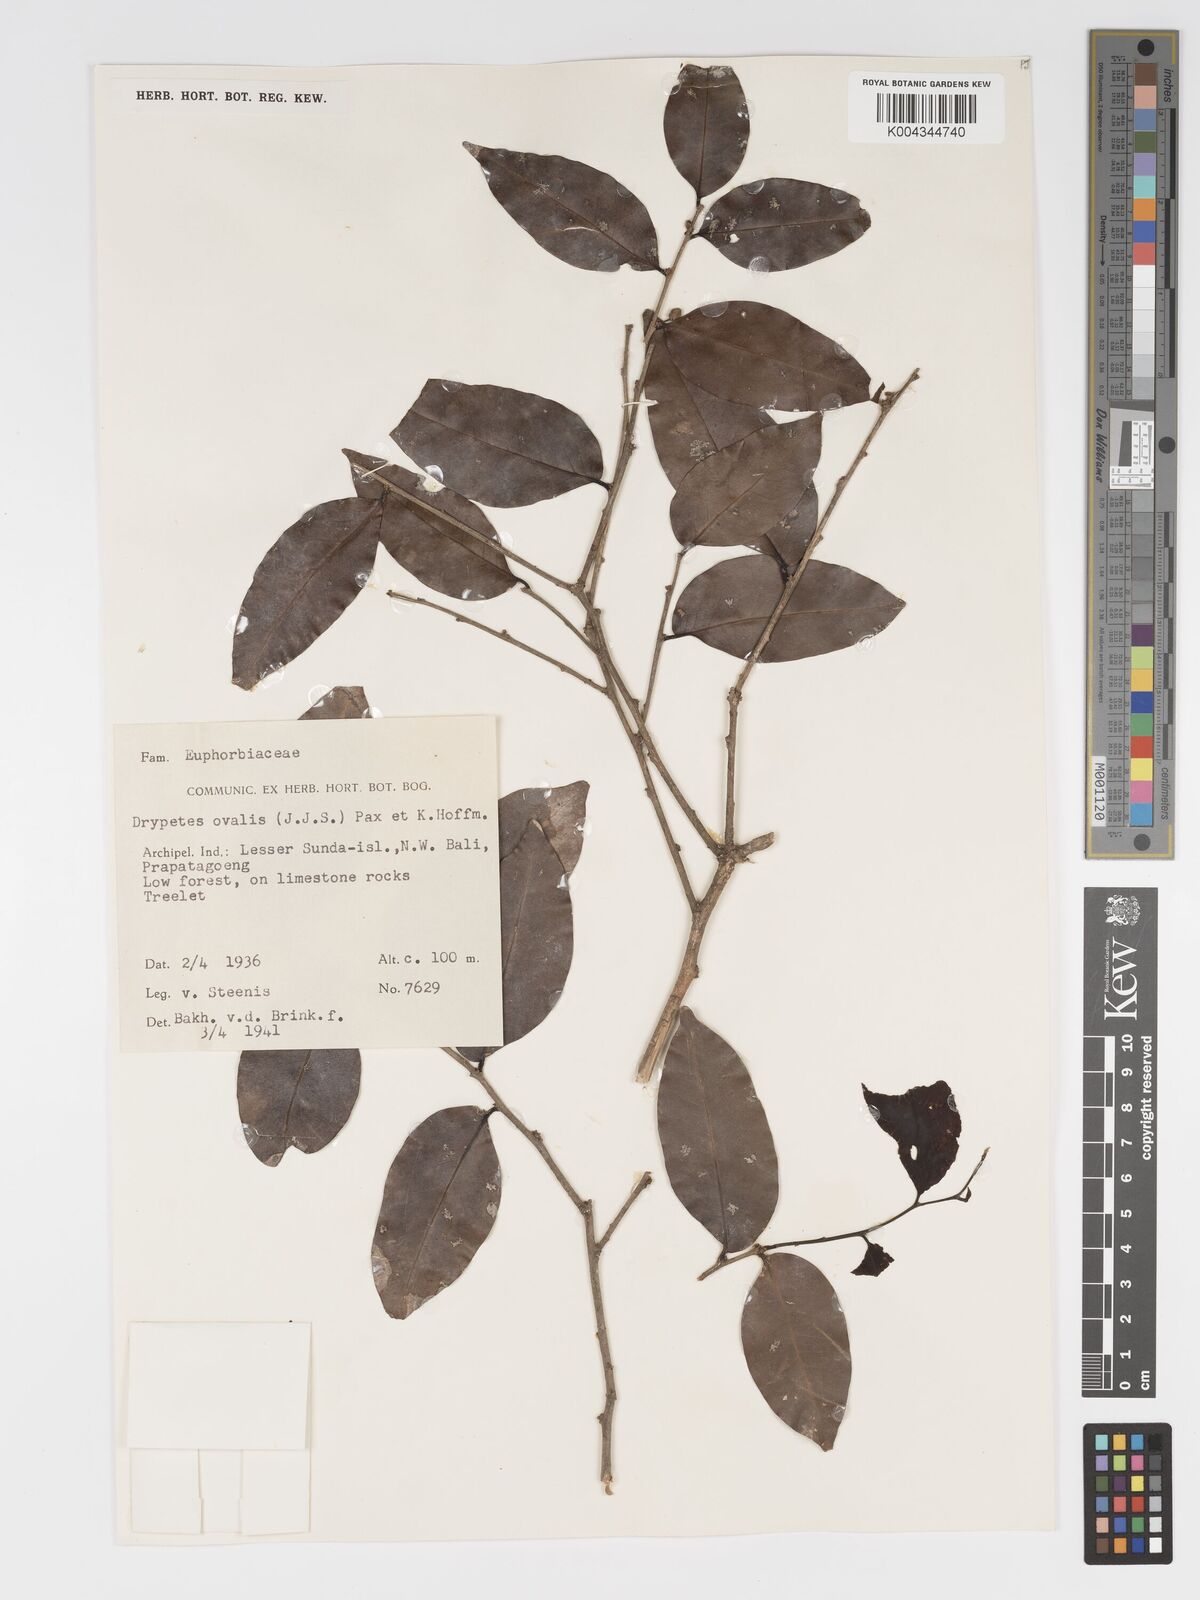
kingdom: Plantae
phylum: Tracheophyta
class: Magnoliopsida
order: Malpighiales
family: Putranjivaceae
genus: Drypetes
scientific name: Drypetes ovalis
